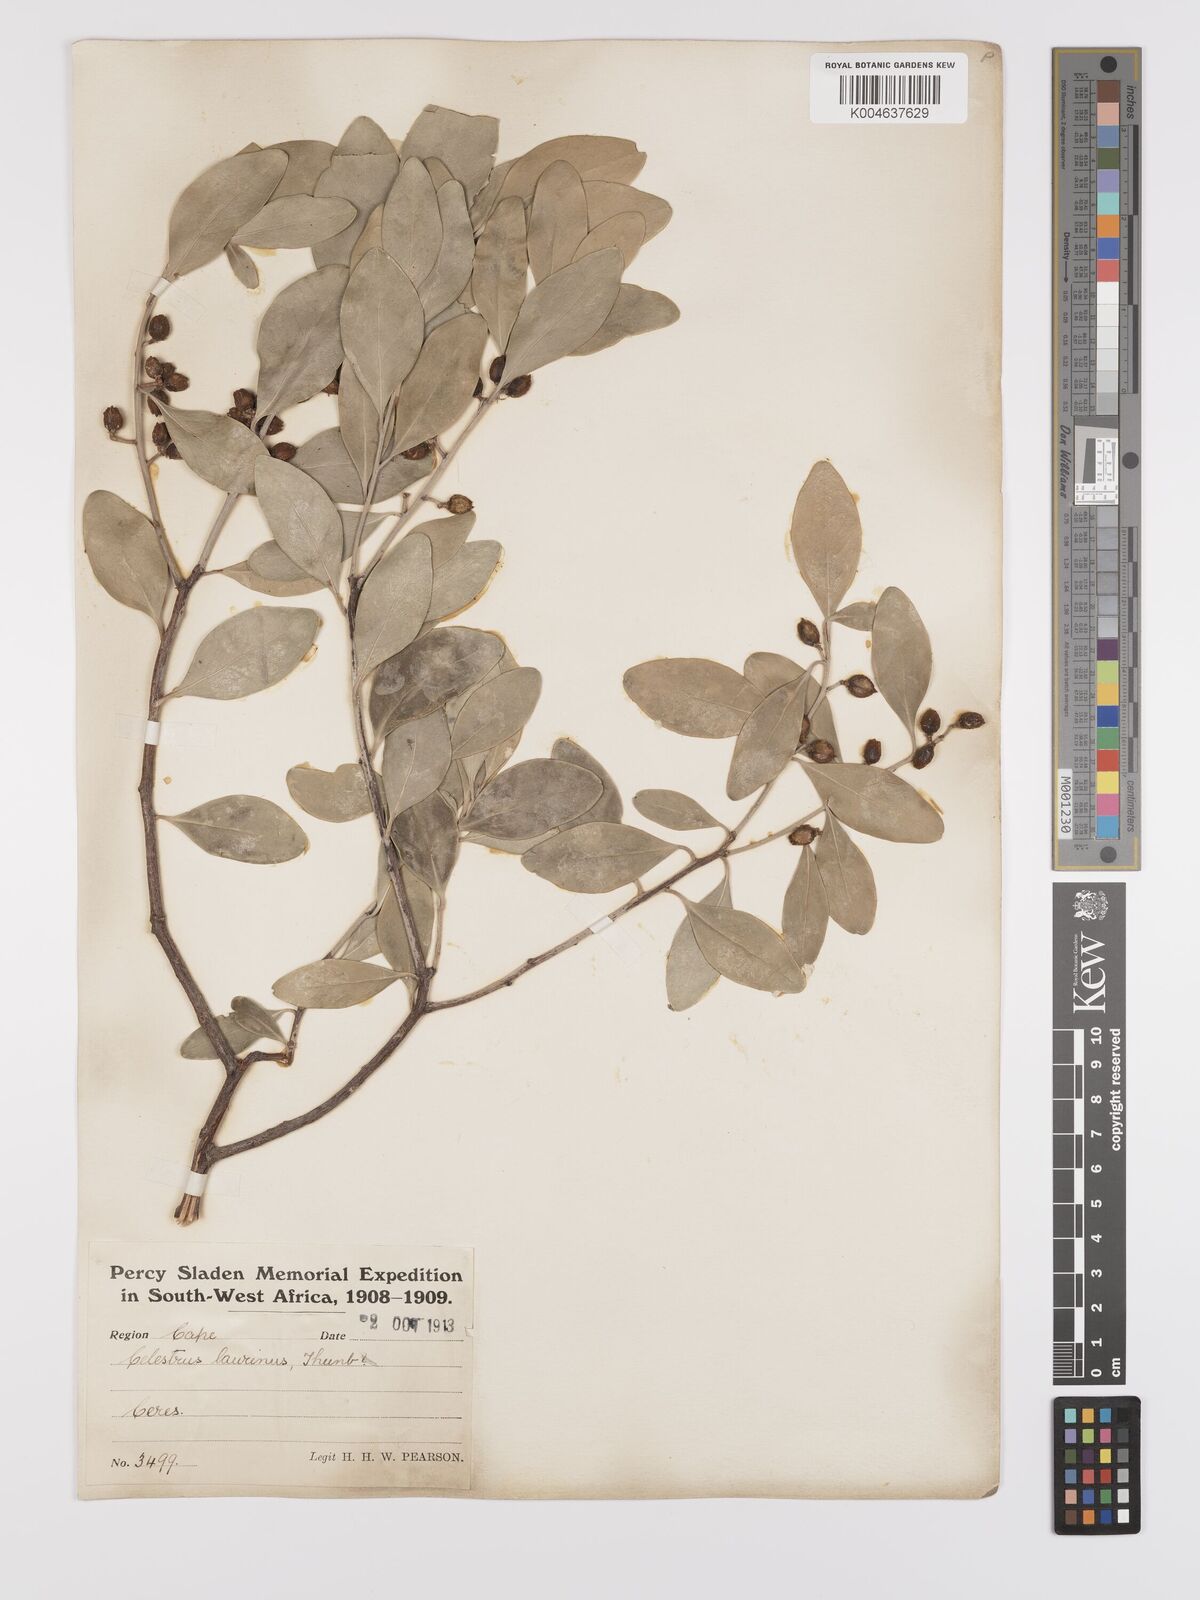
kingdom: Plantae
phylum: Tracheophyta
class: Magnoliopsida
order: Celastrales
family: Celastraceae
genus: Gymnosporia
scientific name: Gymnosporia laurina
